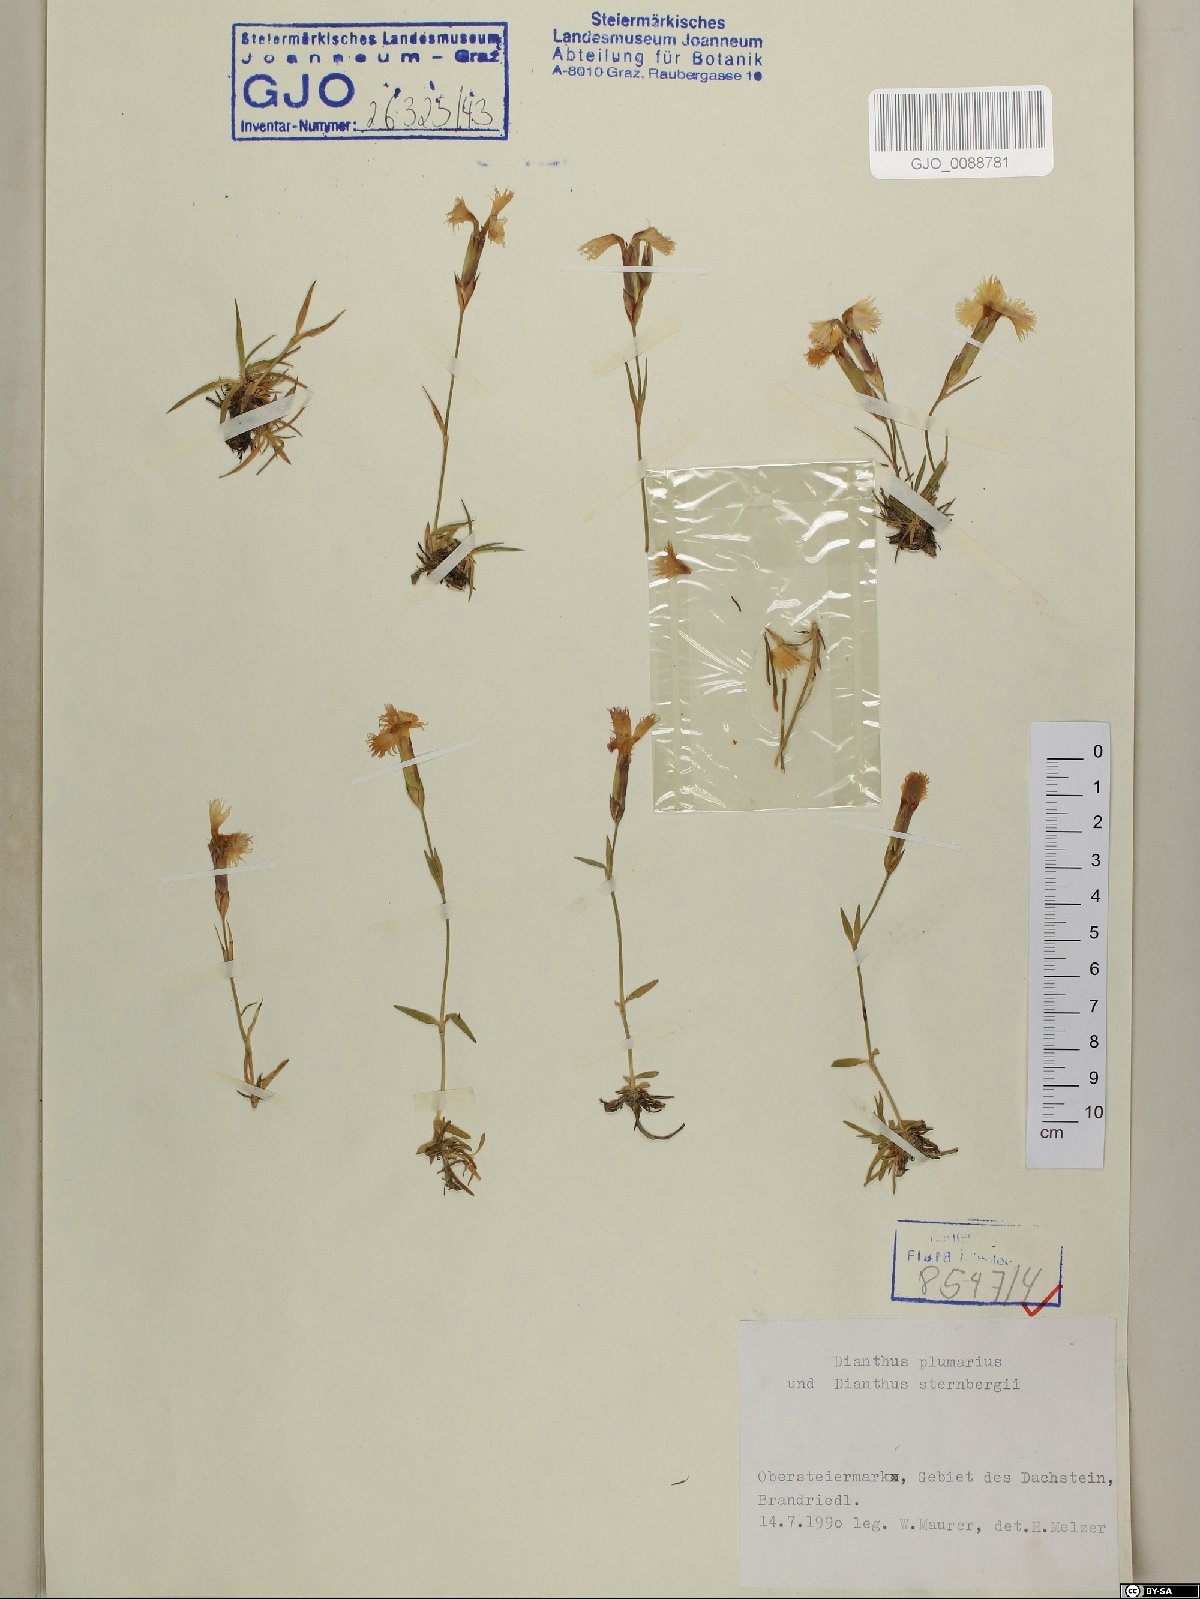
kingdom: Plantae
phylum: Tracheophyta
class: Magnoliopsida
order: Caryophyllales
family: Caryophyllaceae
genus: Dianthus
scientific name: Dianthus plumarius
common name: Pink
